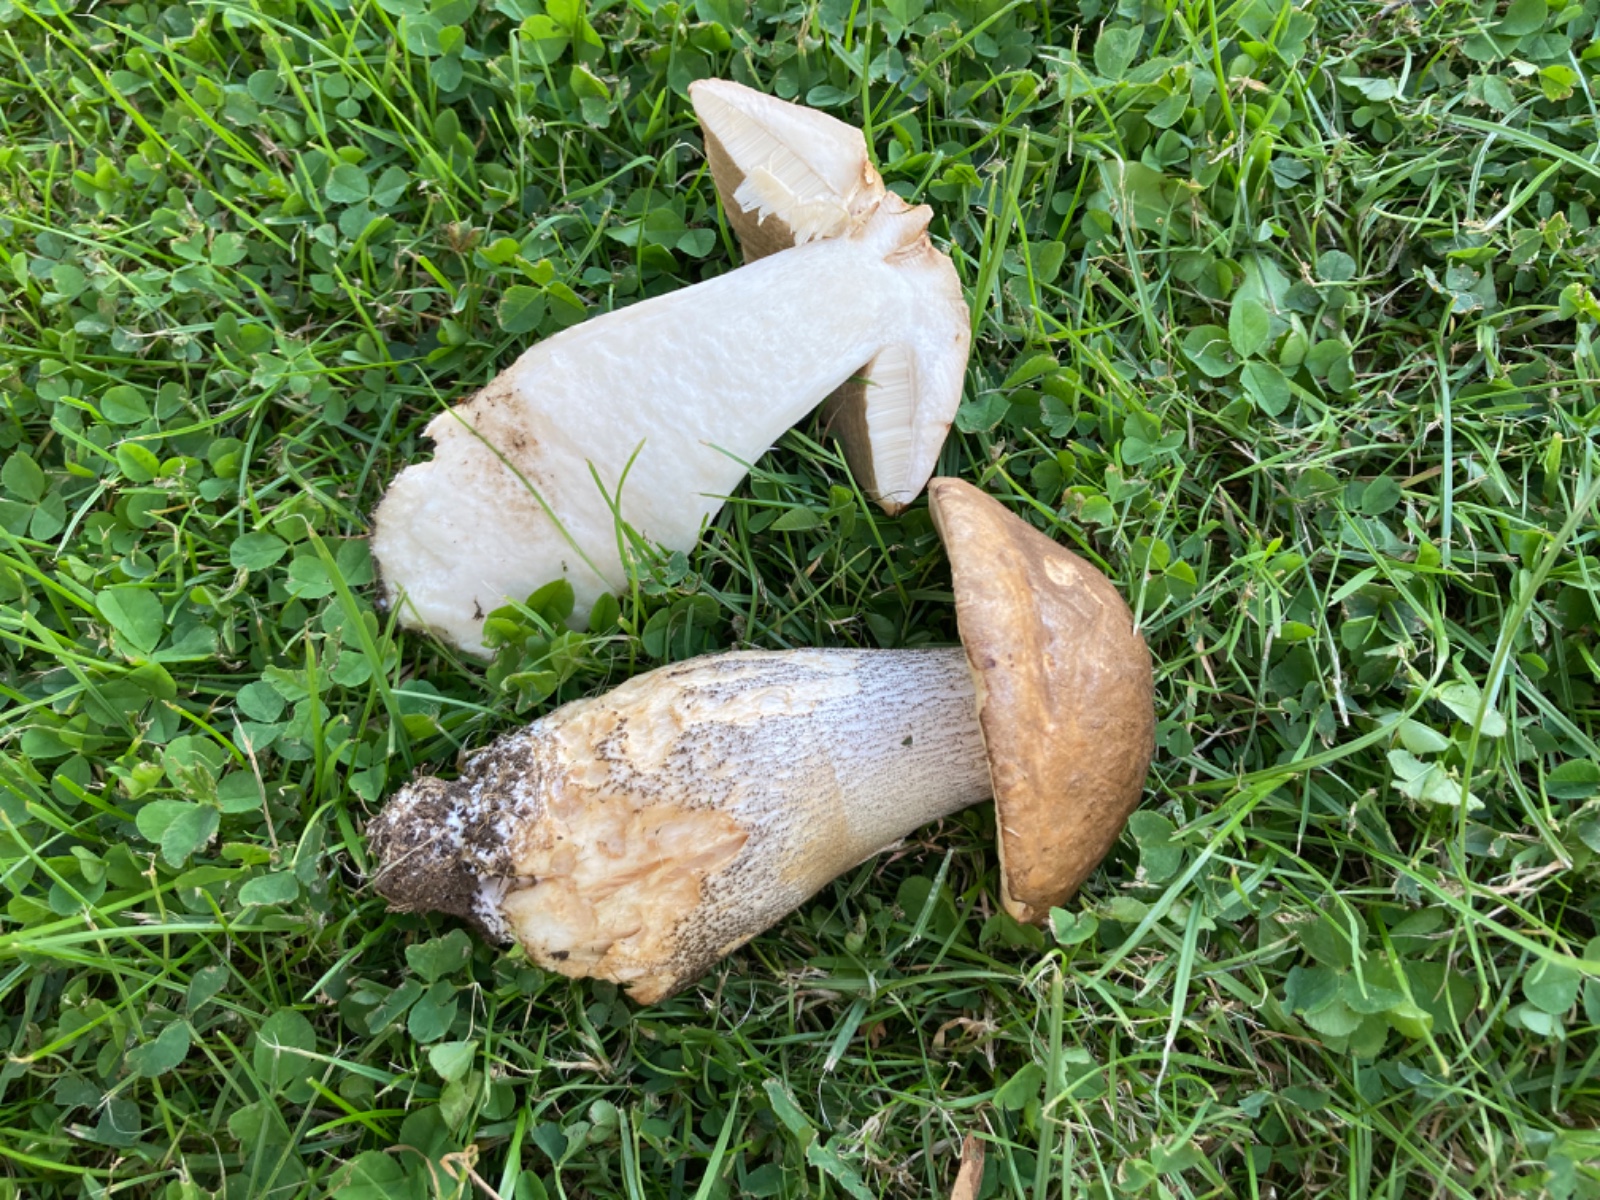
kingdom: Fungi
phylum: Basidiomycota
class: Agaricomycetes
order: Boletales
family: Boletaceae
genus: Leccinum
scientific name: Leccinum scabrum
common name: brun skælrørhat
